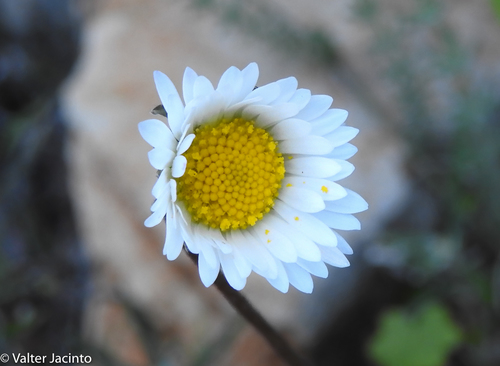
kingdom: Plantae
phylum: Tracheophyta
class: Magnoliopsida
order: Asterales
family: Asteraceae
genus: Bellis
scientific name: Bellis sylvestris
